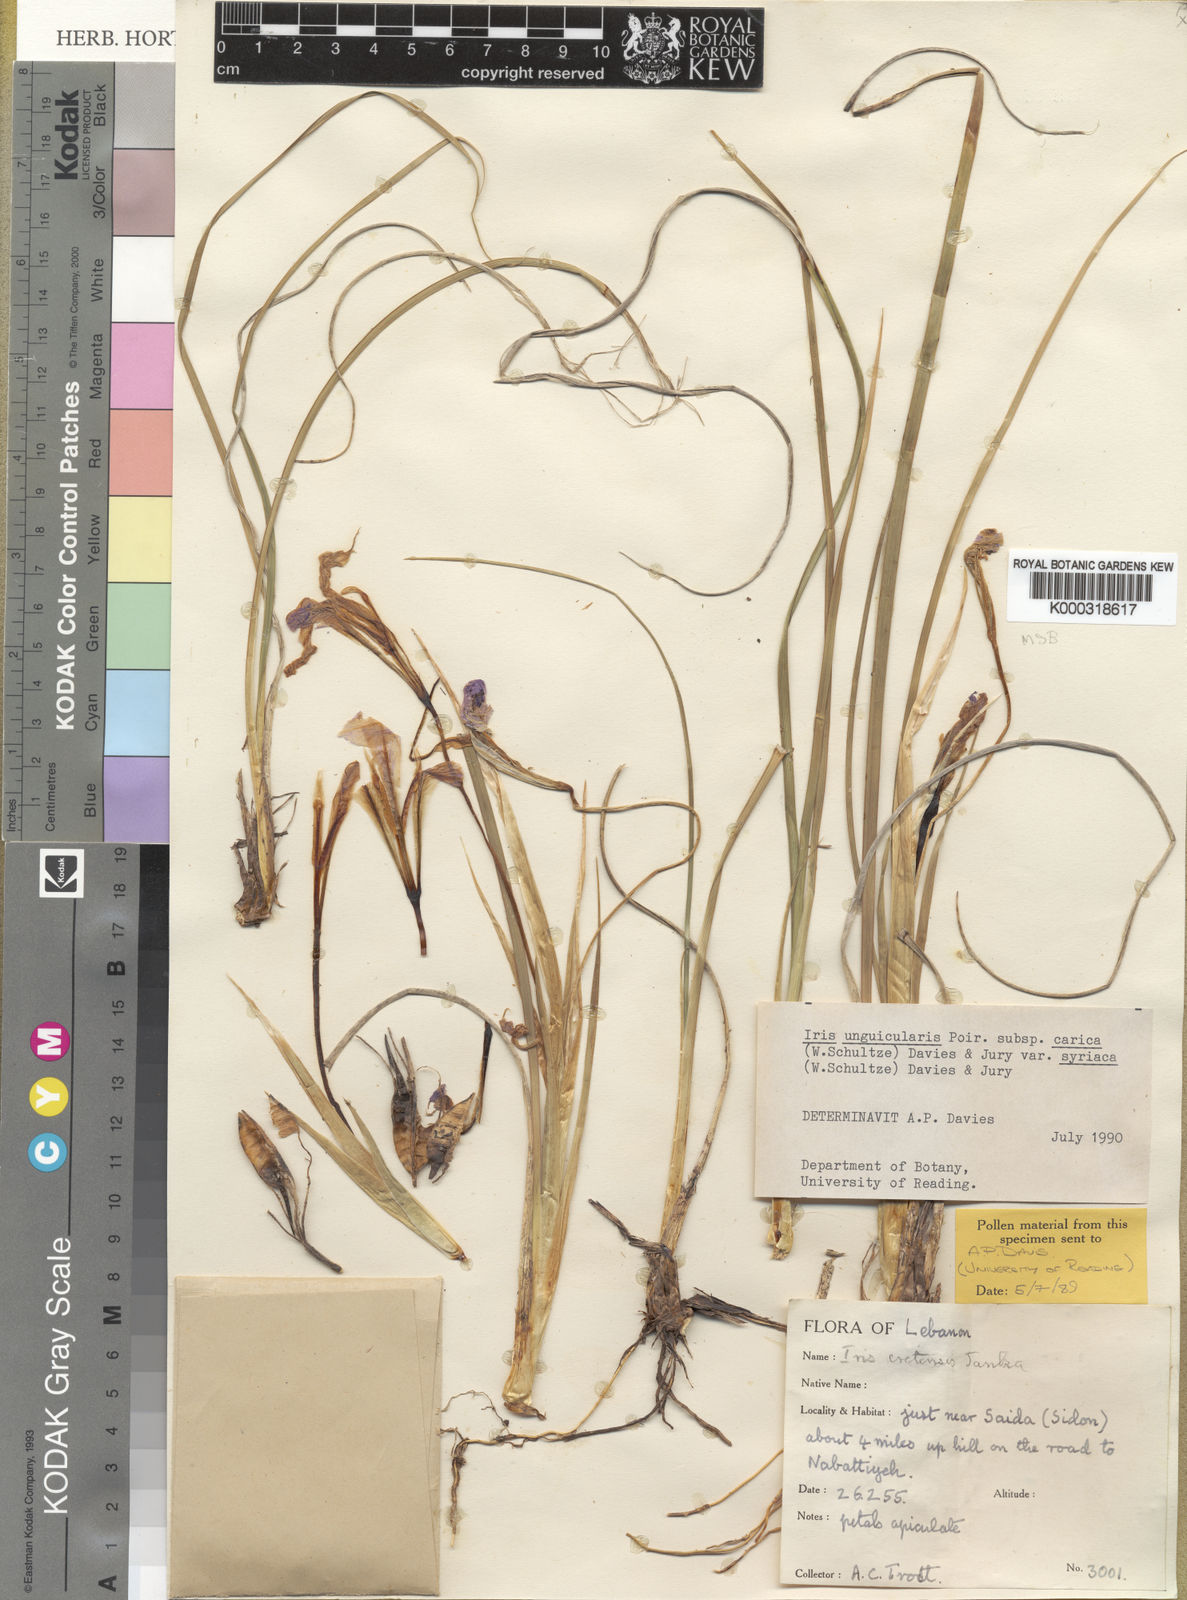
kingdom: Plantae
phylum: Tracheophyta
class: Liliopsida
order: Asparagales
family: Iridaceae
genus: Iris
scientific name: Iris unguicularis
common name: Algerian iris
